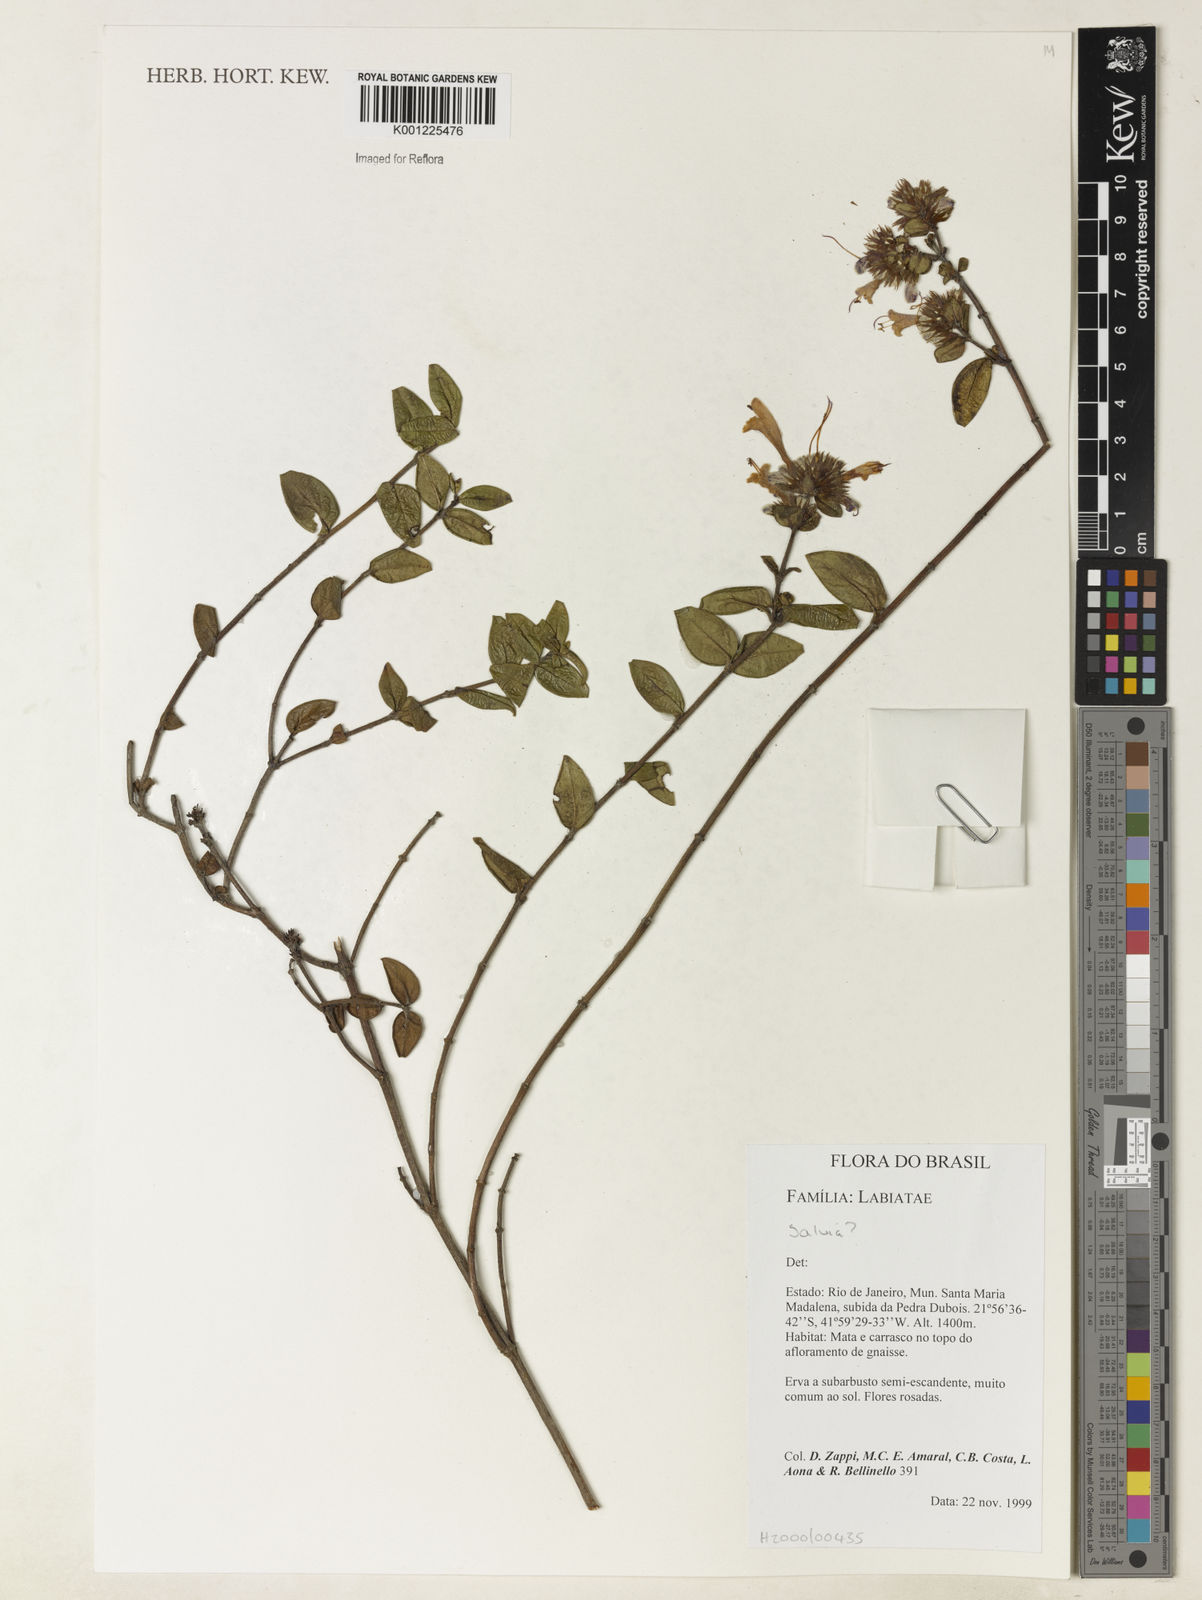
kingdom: Plantae
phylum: Tracheophyta
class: Magnoliopsida
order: Lamiales
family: Lamiaceae
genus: Salvia
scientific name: Salvia
